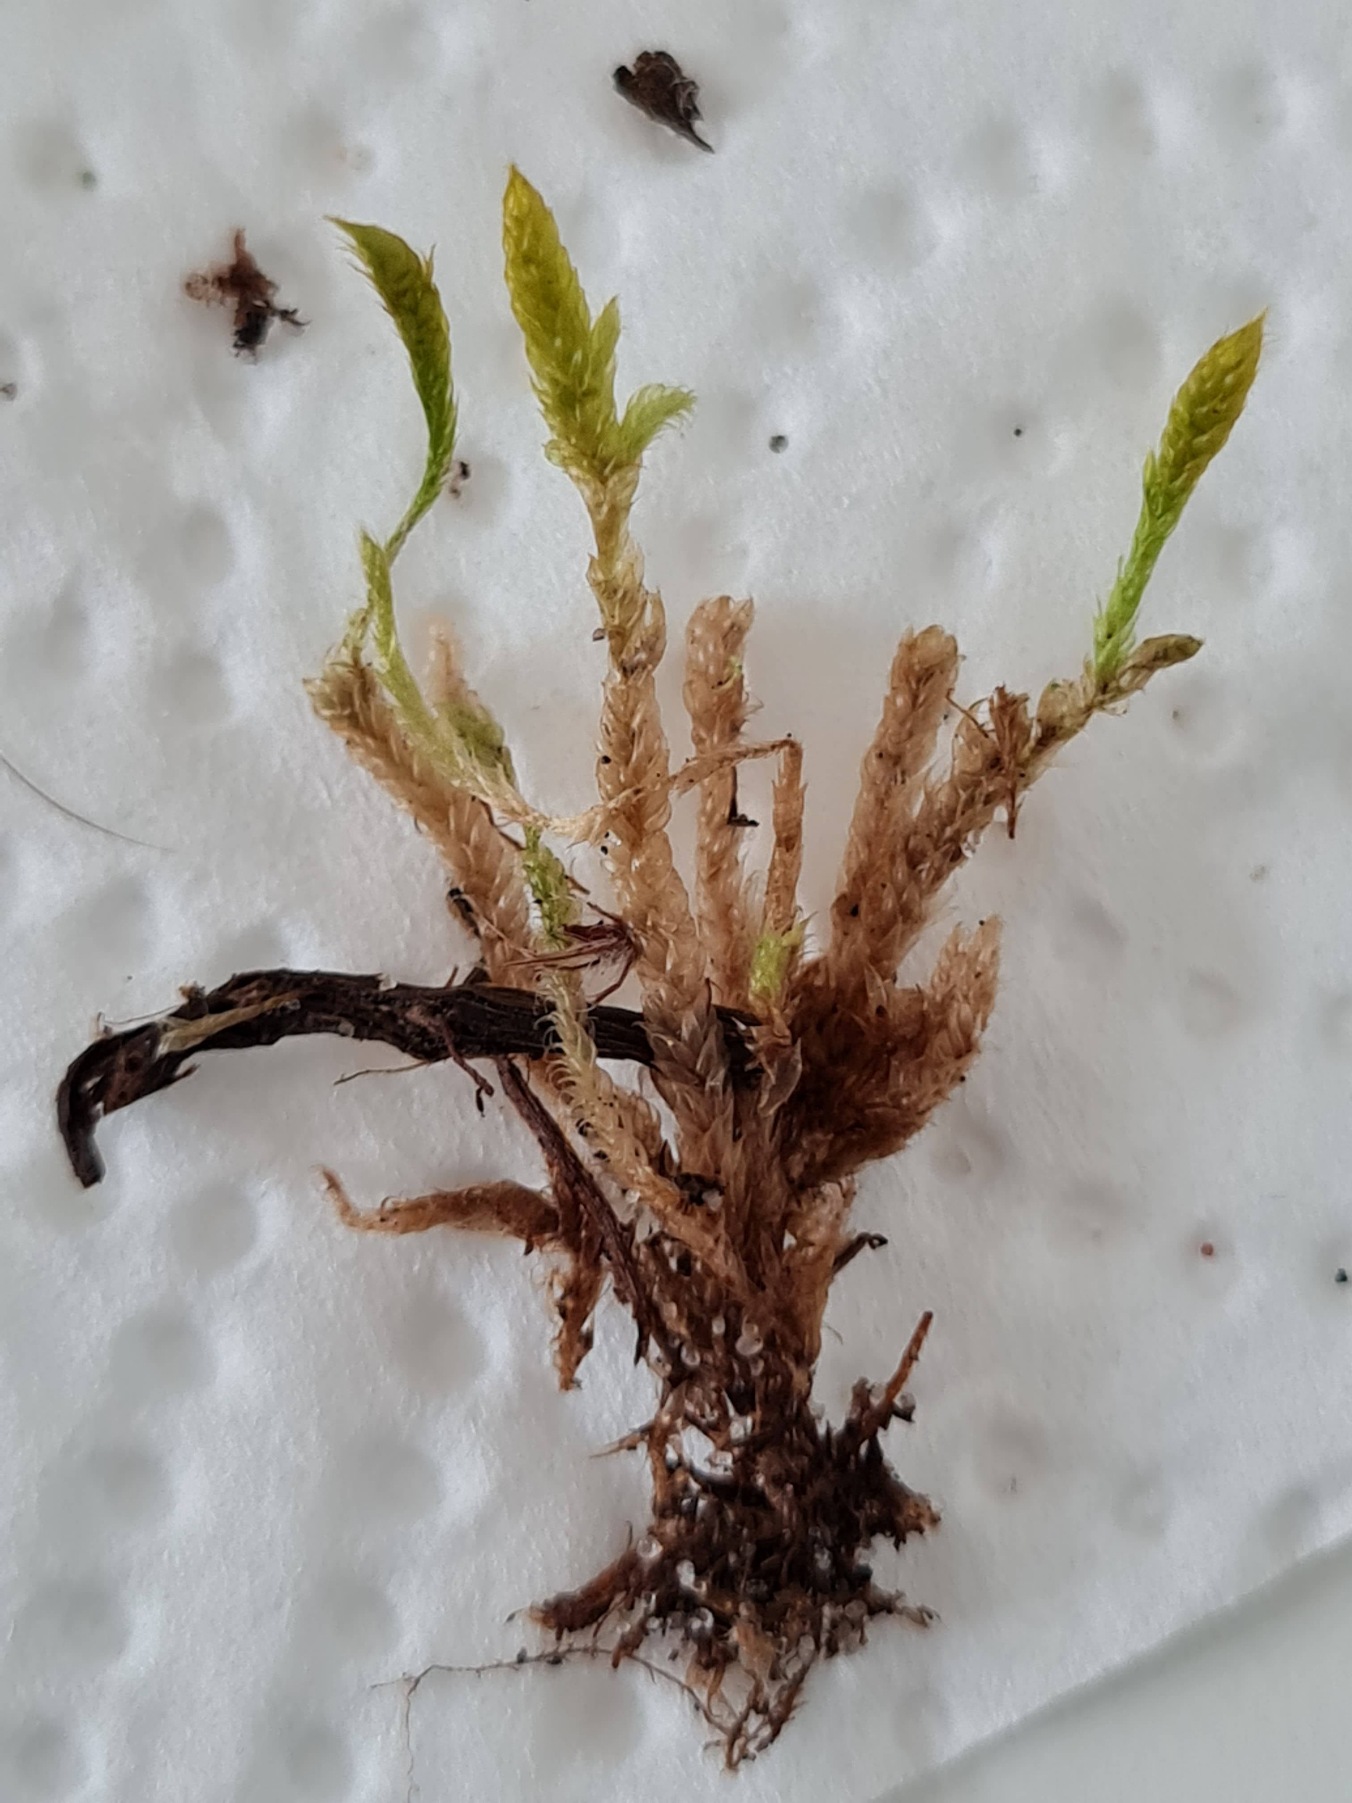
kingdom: Plantae
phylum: Bryophyta
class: Bryopsida
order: Hypnales
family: Hypnaceae
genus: Hypnum
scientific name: Hypnum cupressiforme
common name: Almindelig cypresmos
